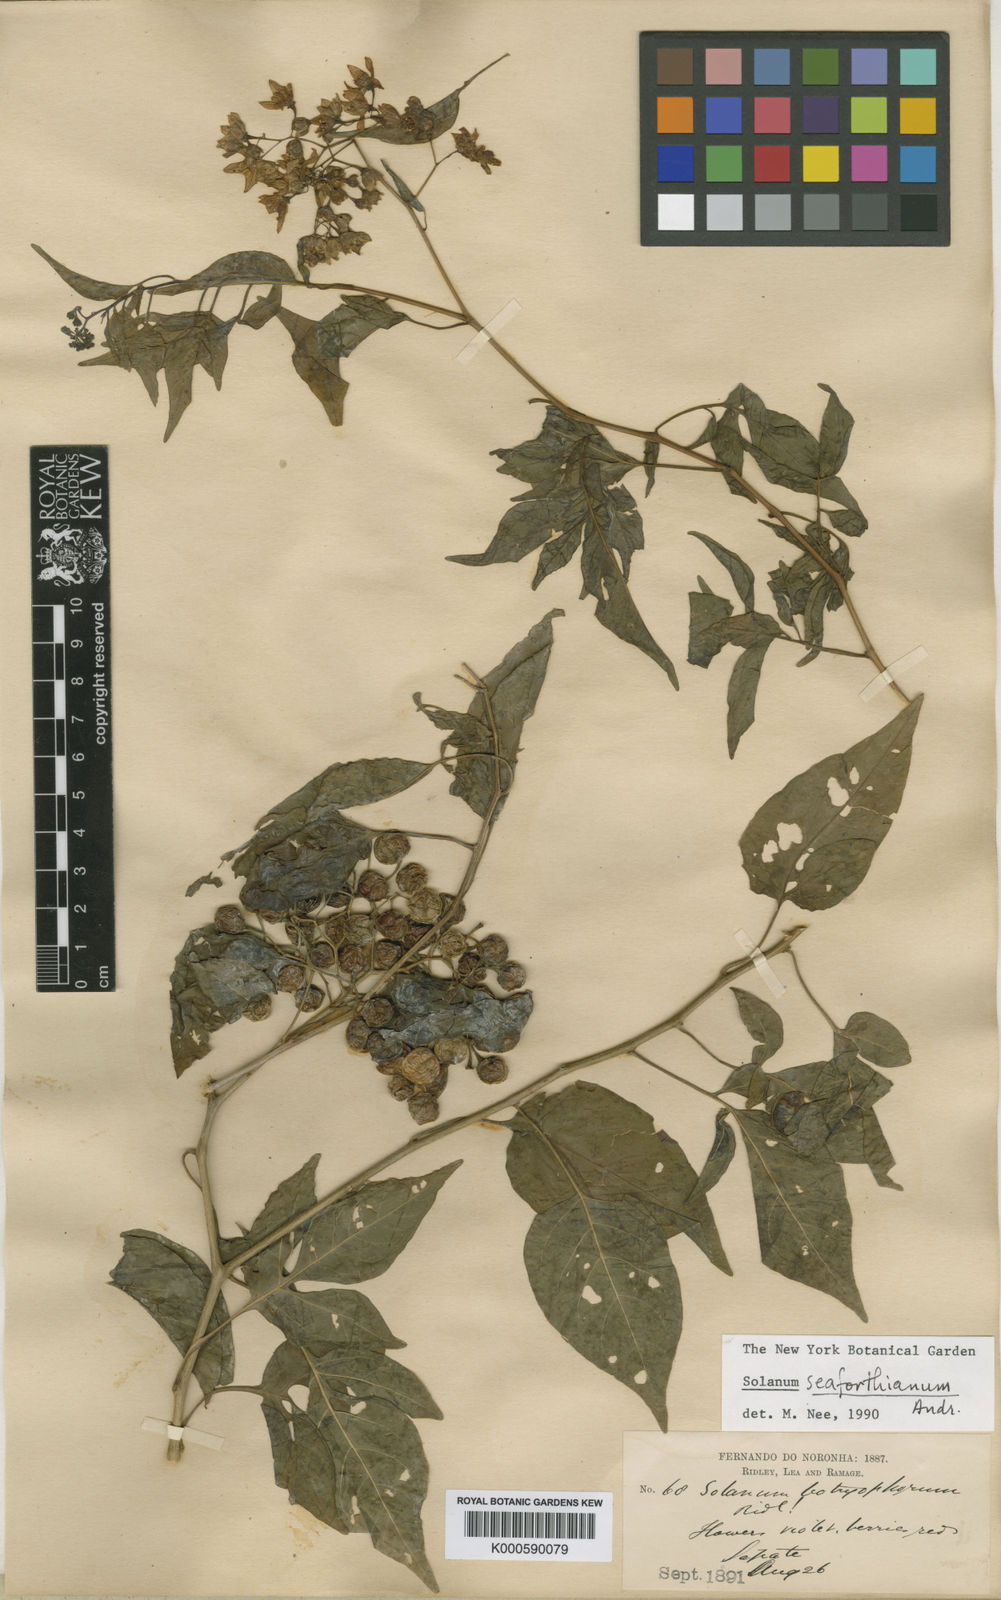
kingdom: Plantae
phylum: Tracheophyta
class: Magnoliopsida
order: Solanales
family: Solanaceae
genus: Solanum
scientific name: Solanum seaforthianum
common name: Brazilian nightshade
